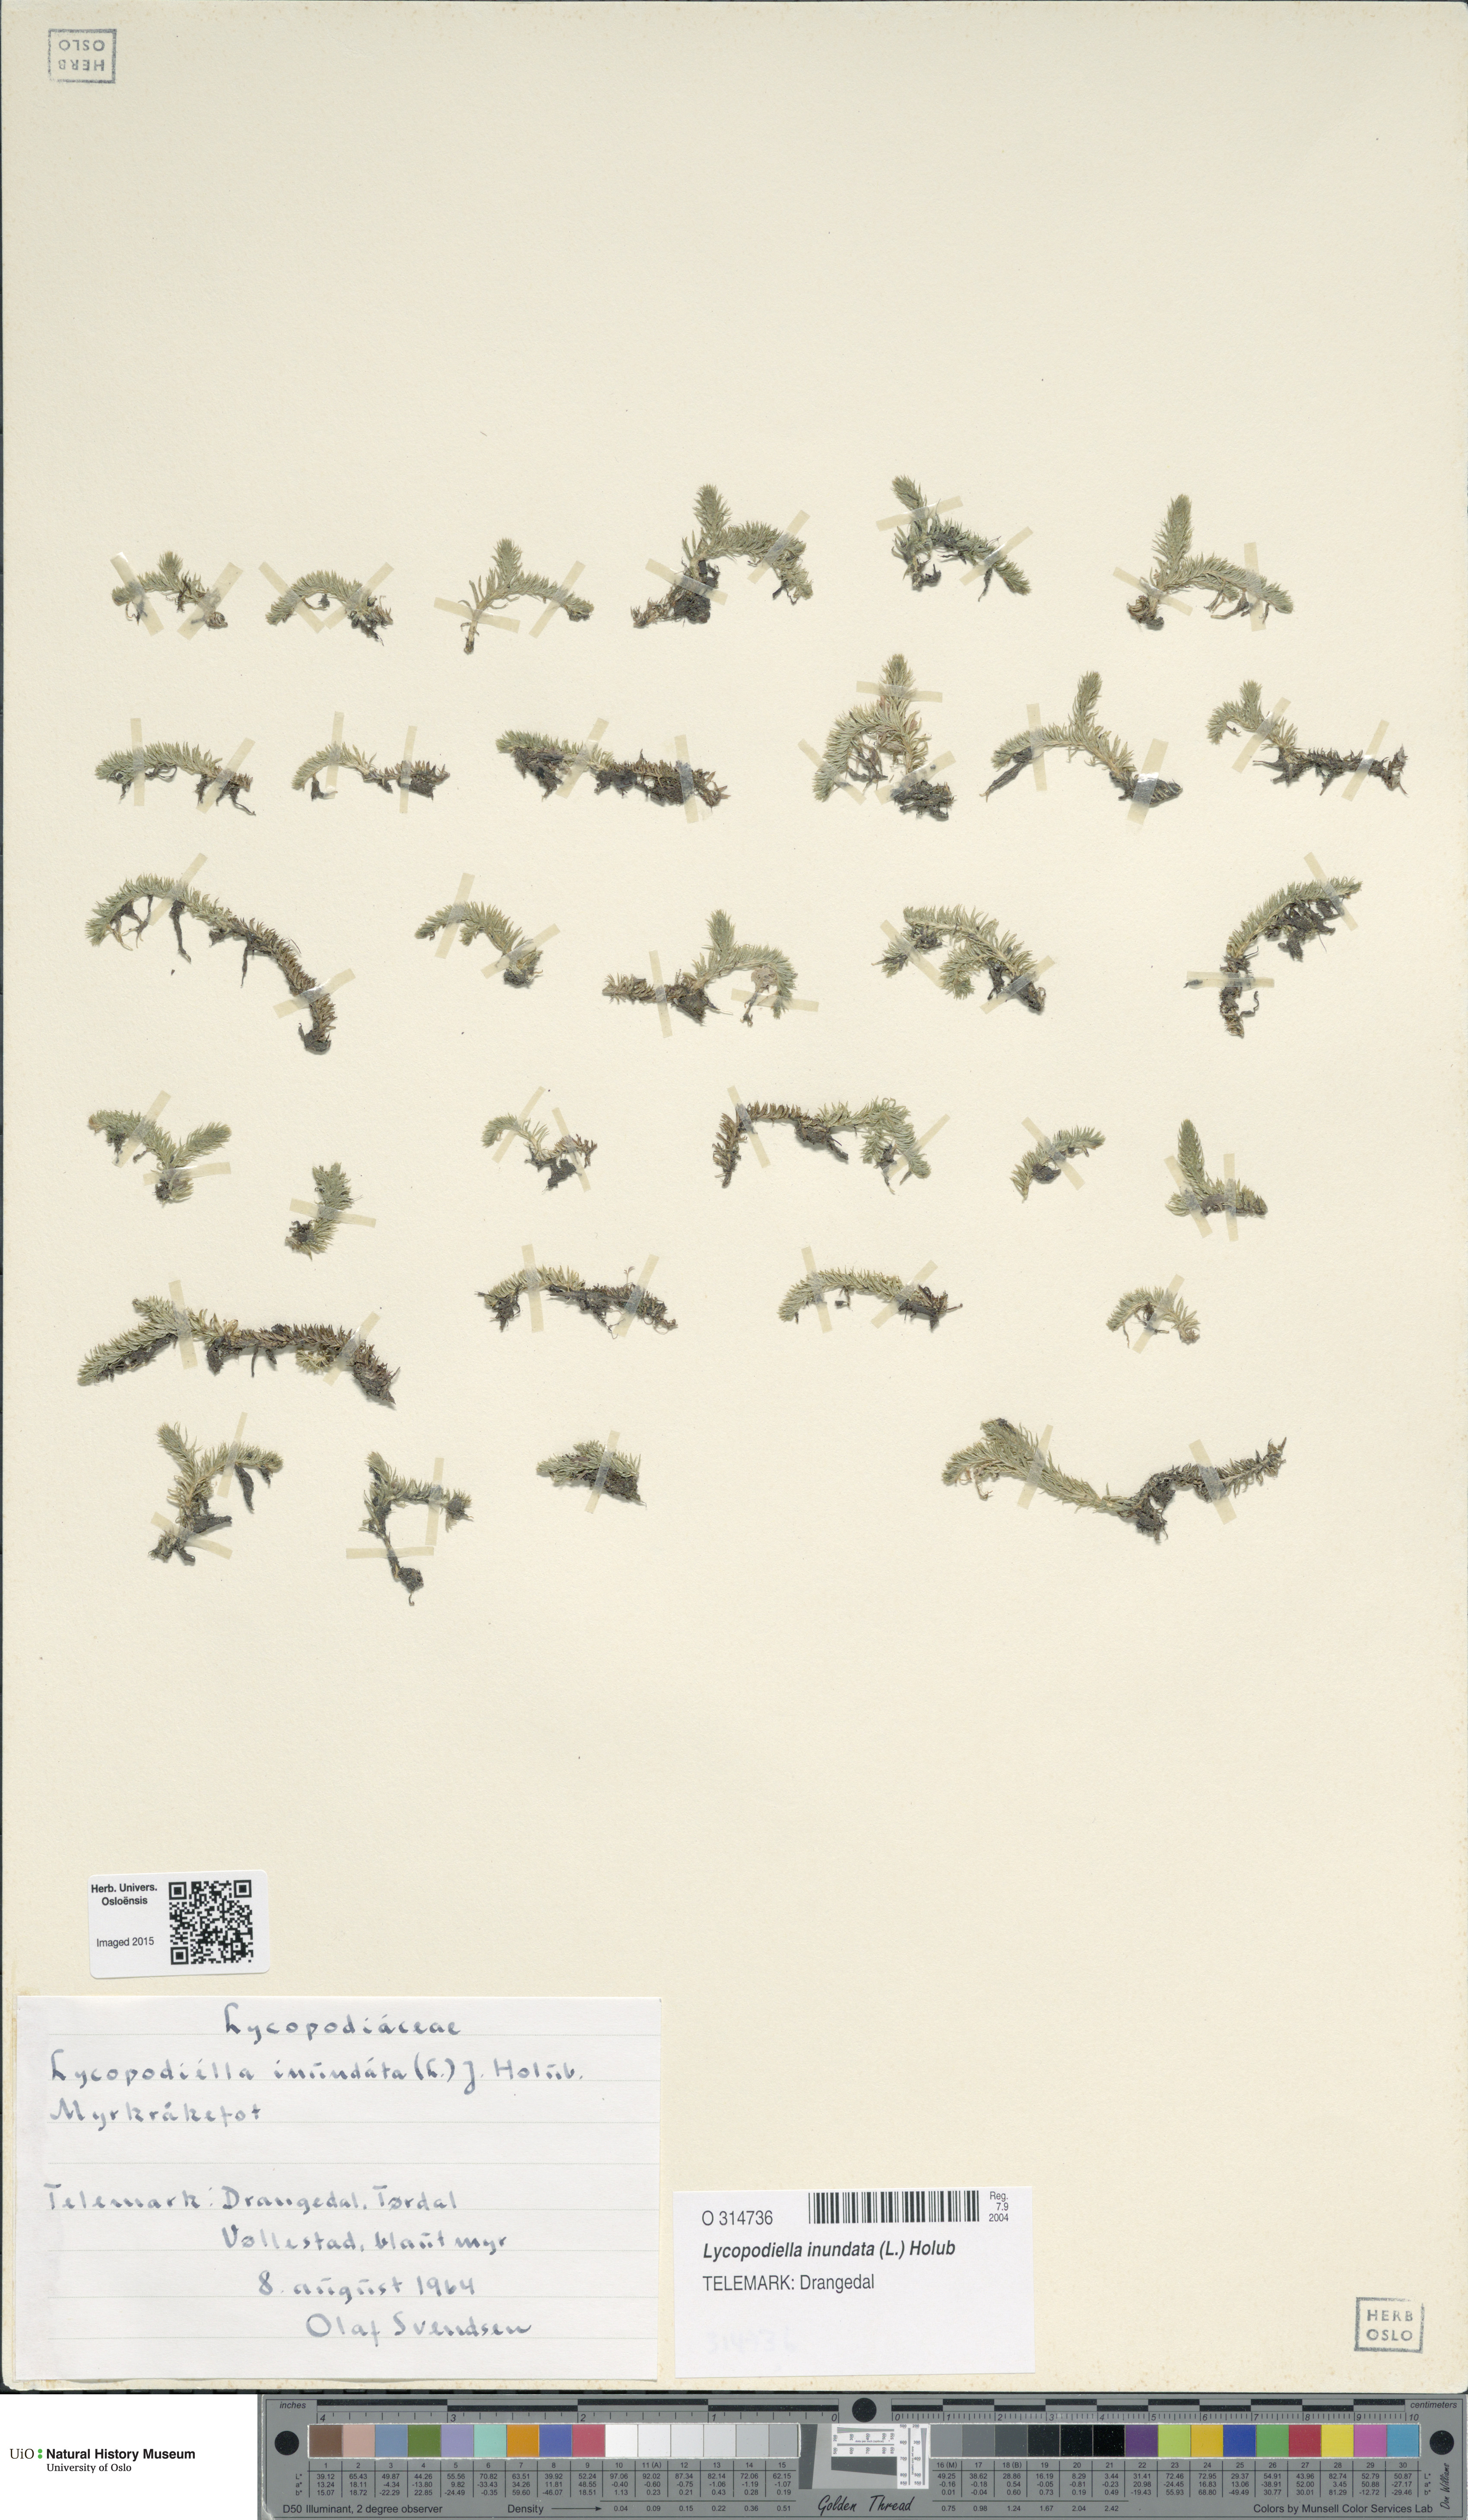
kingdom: Plantae
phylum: Tracheophyta
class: Lycopodiopsida
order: Lycopodiales
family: Lycopodiaceae
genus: Lycopodiella
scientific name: Lycopodiella inundata
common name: Marsh clubmoss
